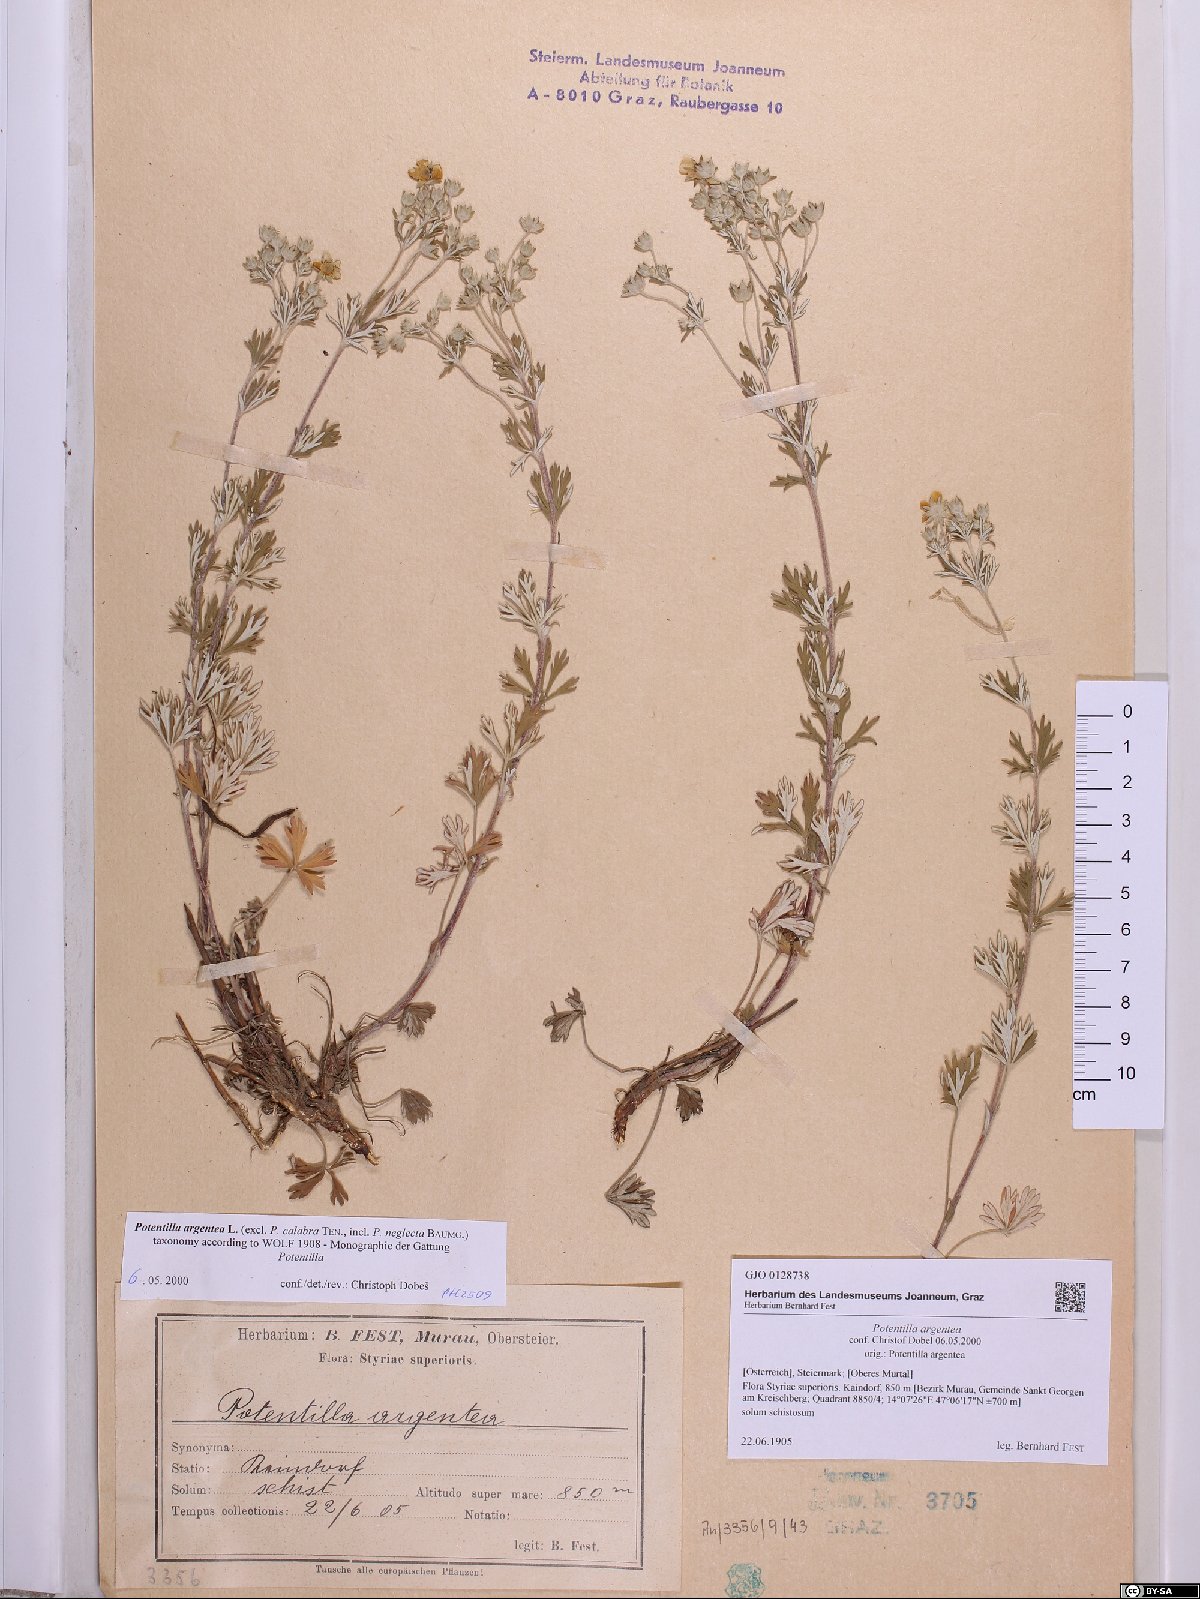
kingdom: Plantae
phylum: Tracheophyta
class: Magnoliopsida
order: Rosales
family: Rosaceae
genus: Potentilla
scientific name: Potentilla argentea
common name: Hoary cinquefoil
